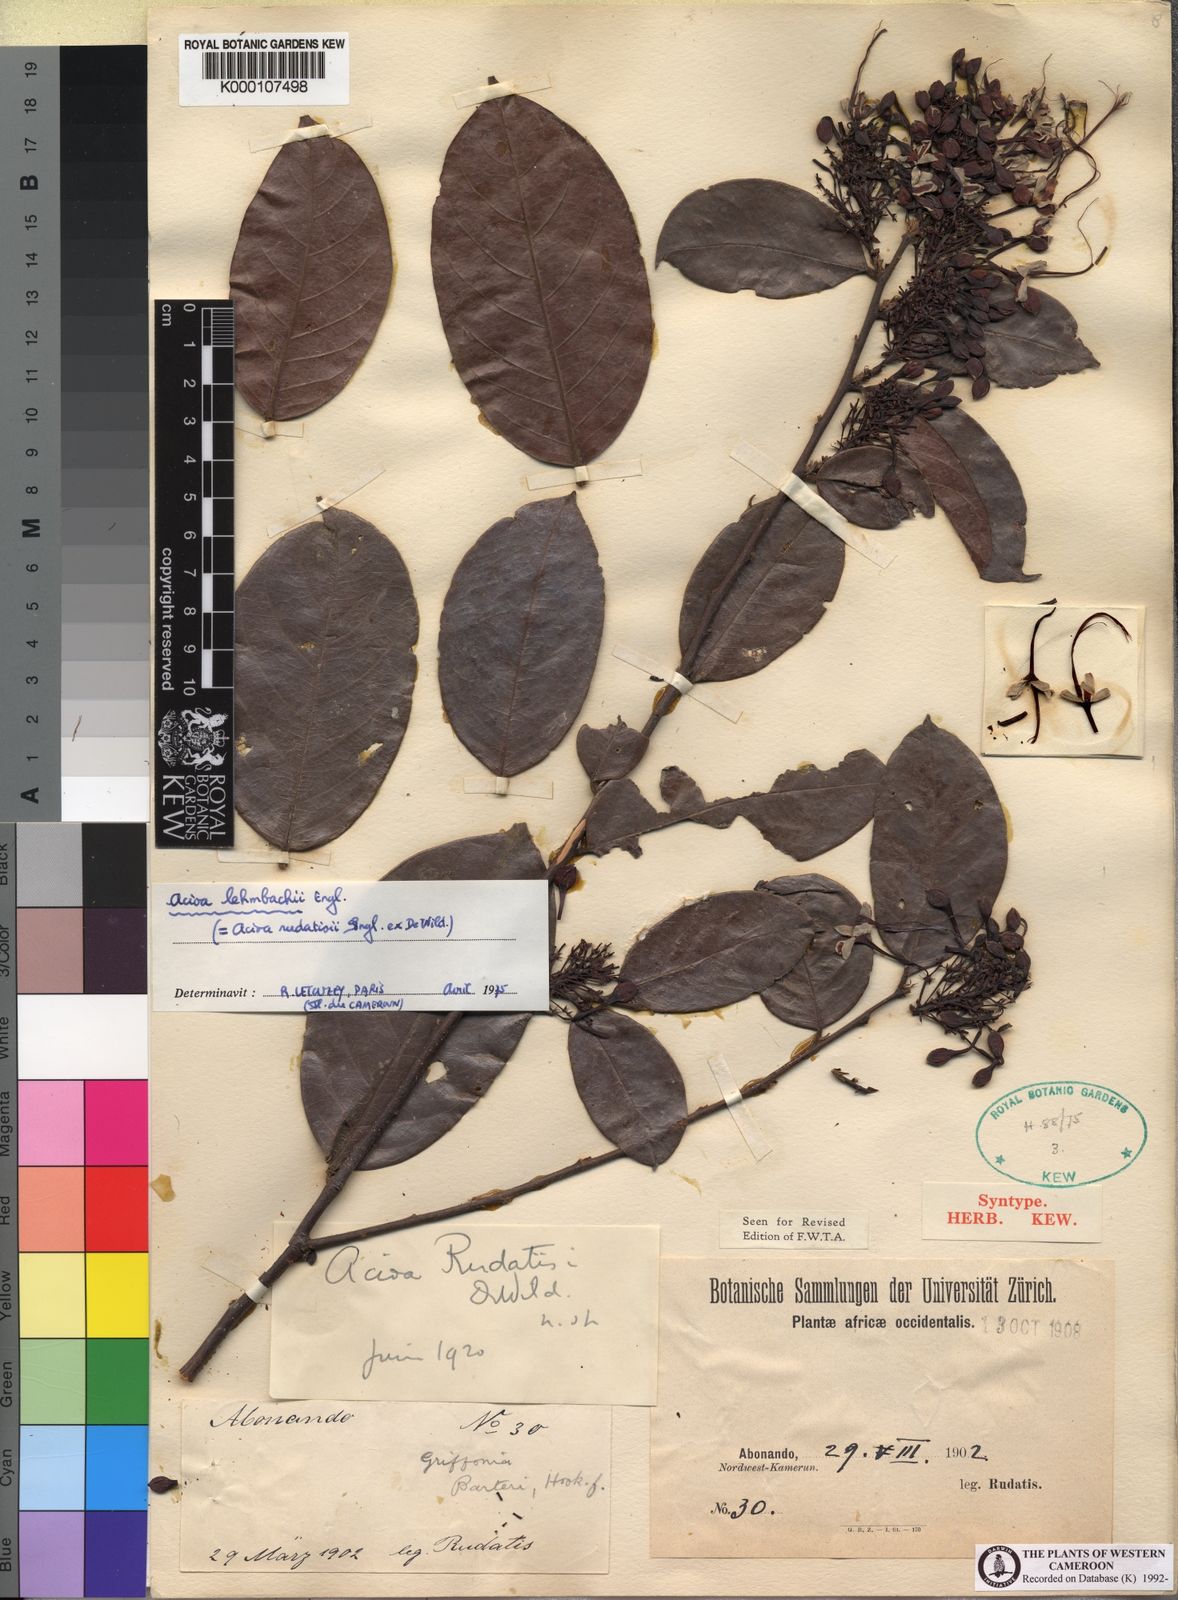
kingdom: Plantae
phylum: Tracheophyta
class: Magnoliopsida
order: Malpighiales
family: Chrysobalanaceae
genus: Dactyladenia
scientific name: Dactyladenia lehmbachii
